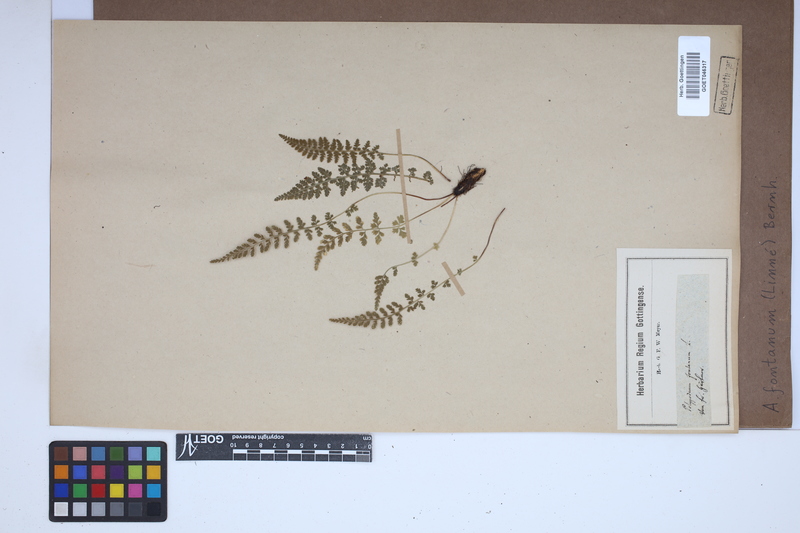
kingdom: Plantae
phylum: Tracheophyta
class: Polypodiopsida
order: Polypodiales
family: Aspleniaceae
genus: Asplenium
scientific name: Asplenium fontanum
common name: Fountain spleenwort
